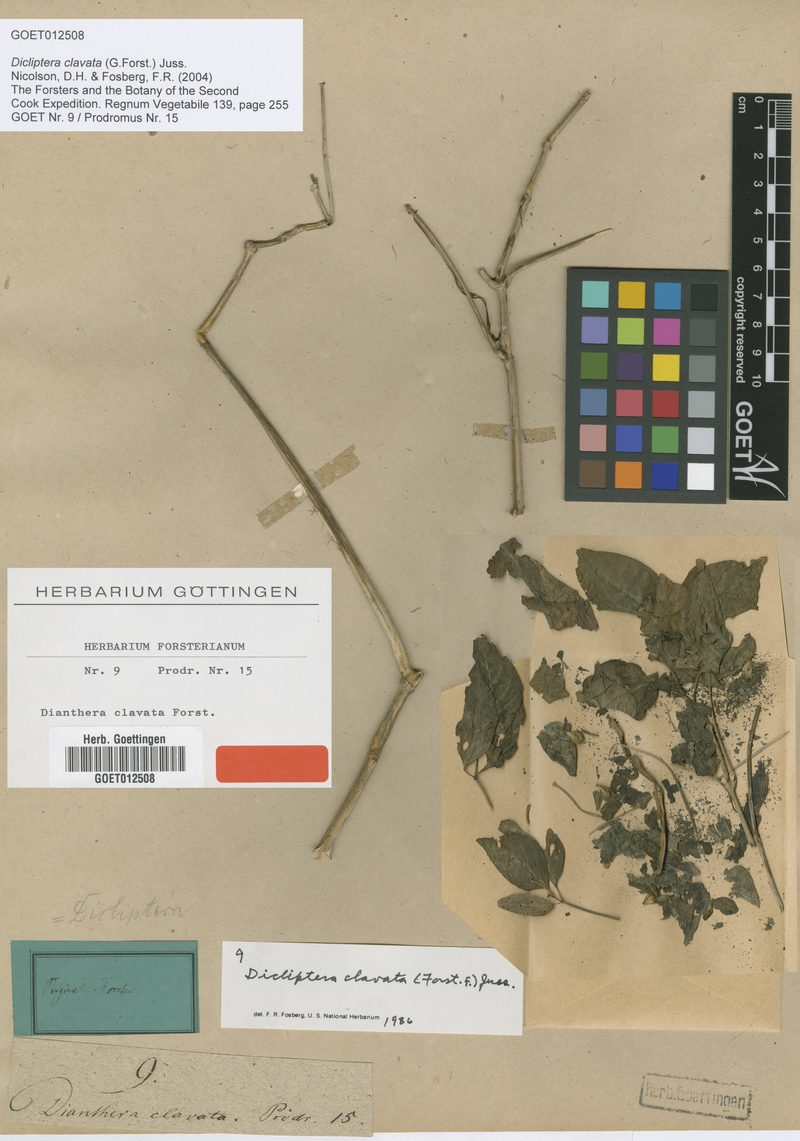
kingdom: Plantae
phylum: Tracheophyta
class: Magnoliopsida
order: Lamiales
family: Acanthaceae
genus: Dicliptera
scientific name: Dicliptera clavata
